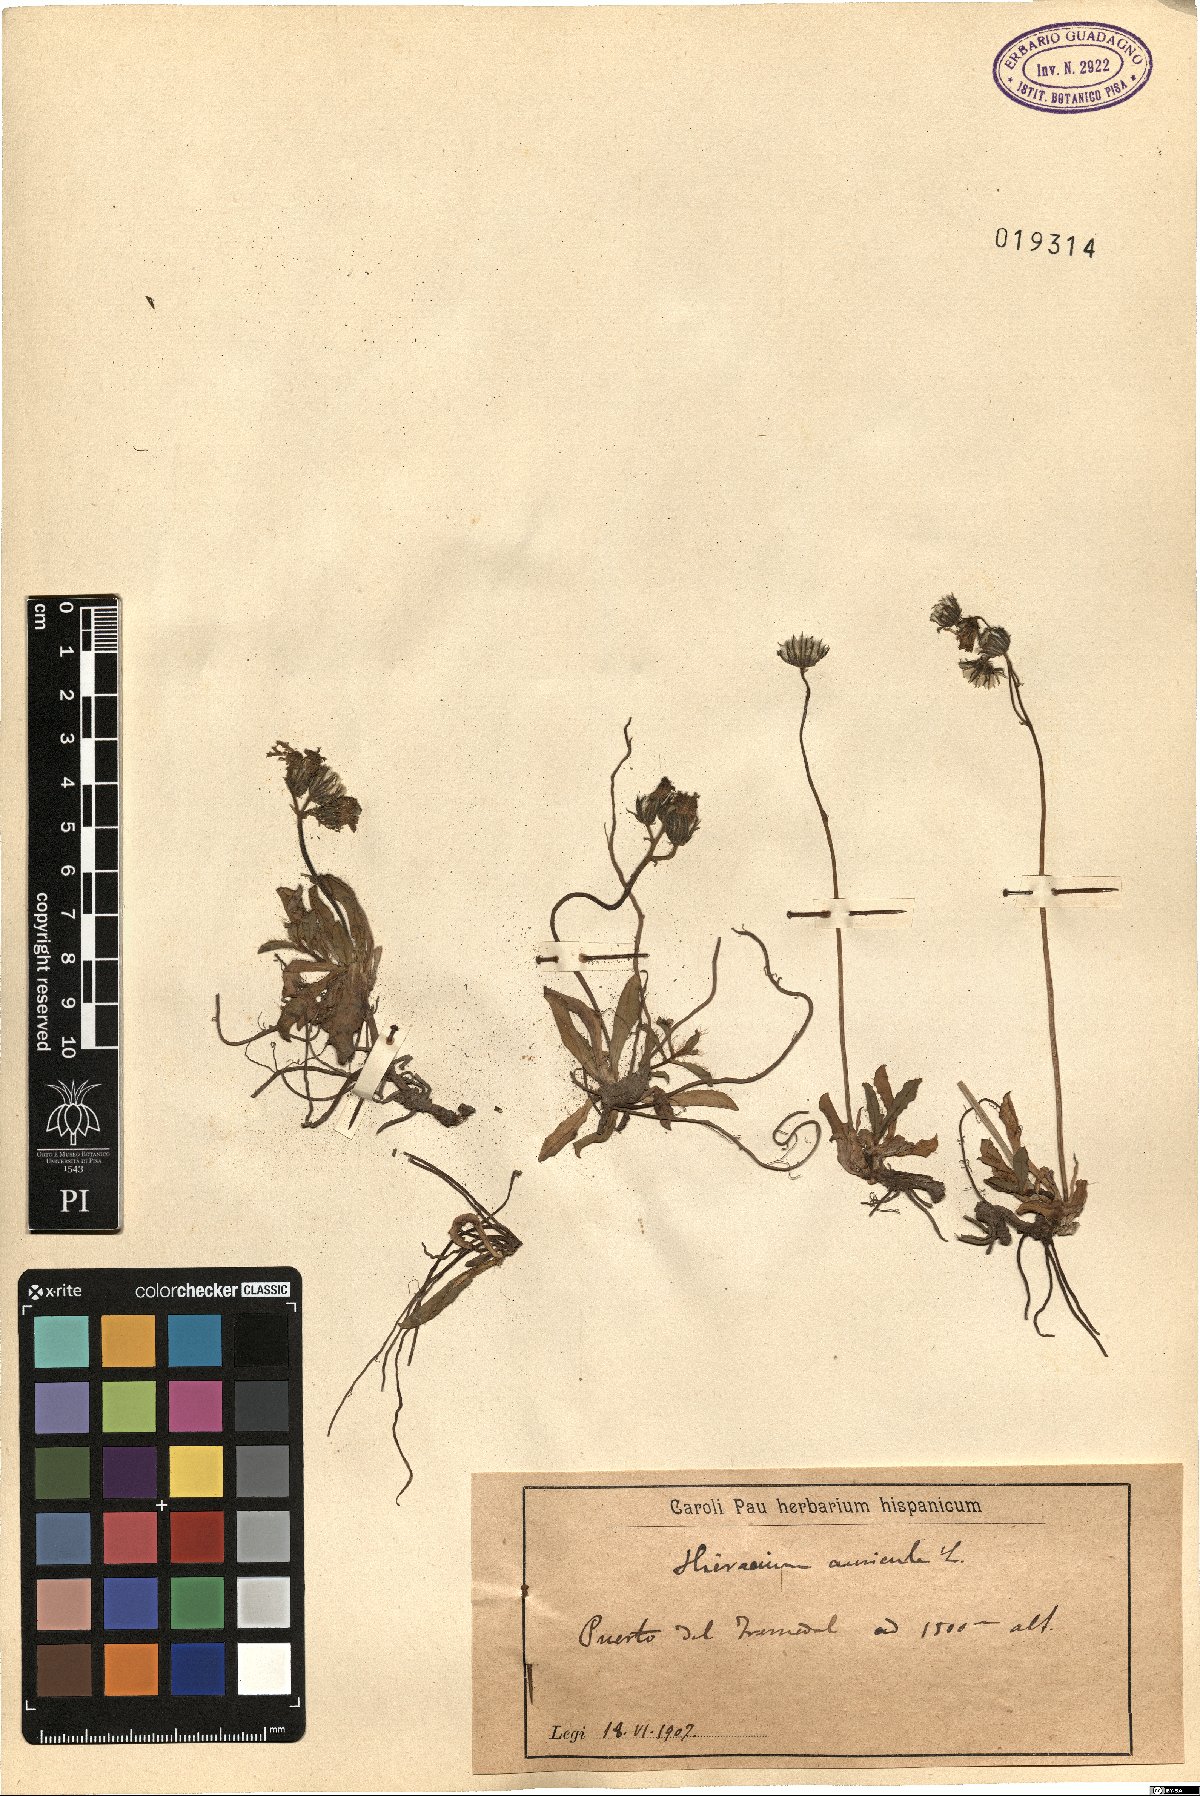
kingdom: Plantae
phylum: Tracheophyta
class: Magnoliopsida
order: Asterales
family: Asteraceae
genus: Pilosella
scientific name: Pilosella floribunda
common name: Glaucous hawkweed
